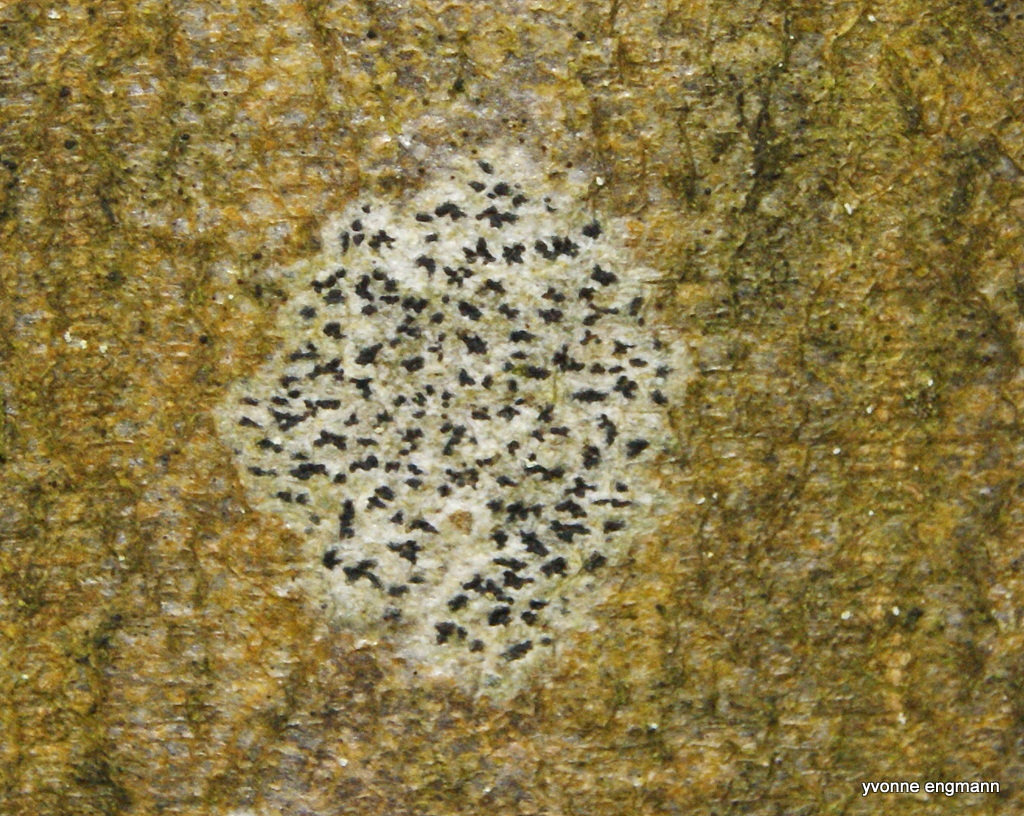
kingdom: Fungi
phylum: Ascomycota
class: Arthoniomycetes
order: Arthoniales
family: Arthoniaceae
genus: Arthonia
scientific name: Arthonia radiata
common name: stjerne-pletlav
